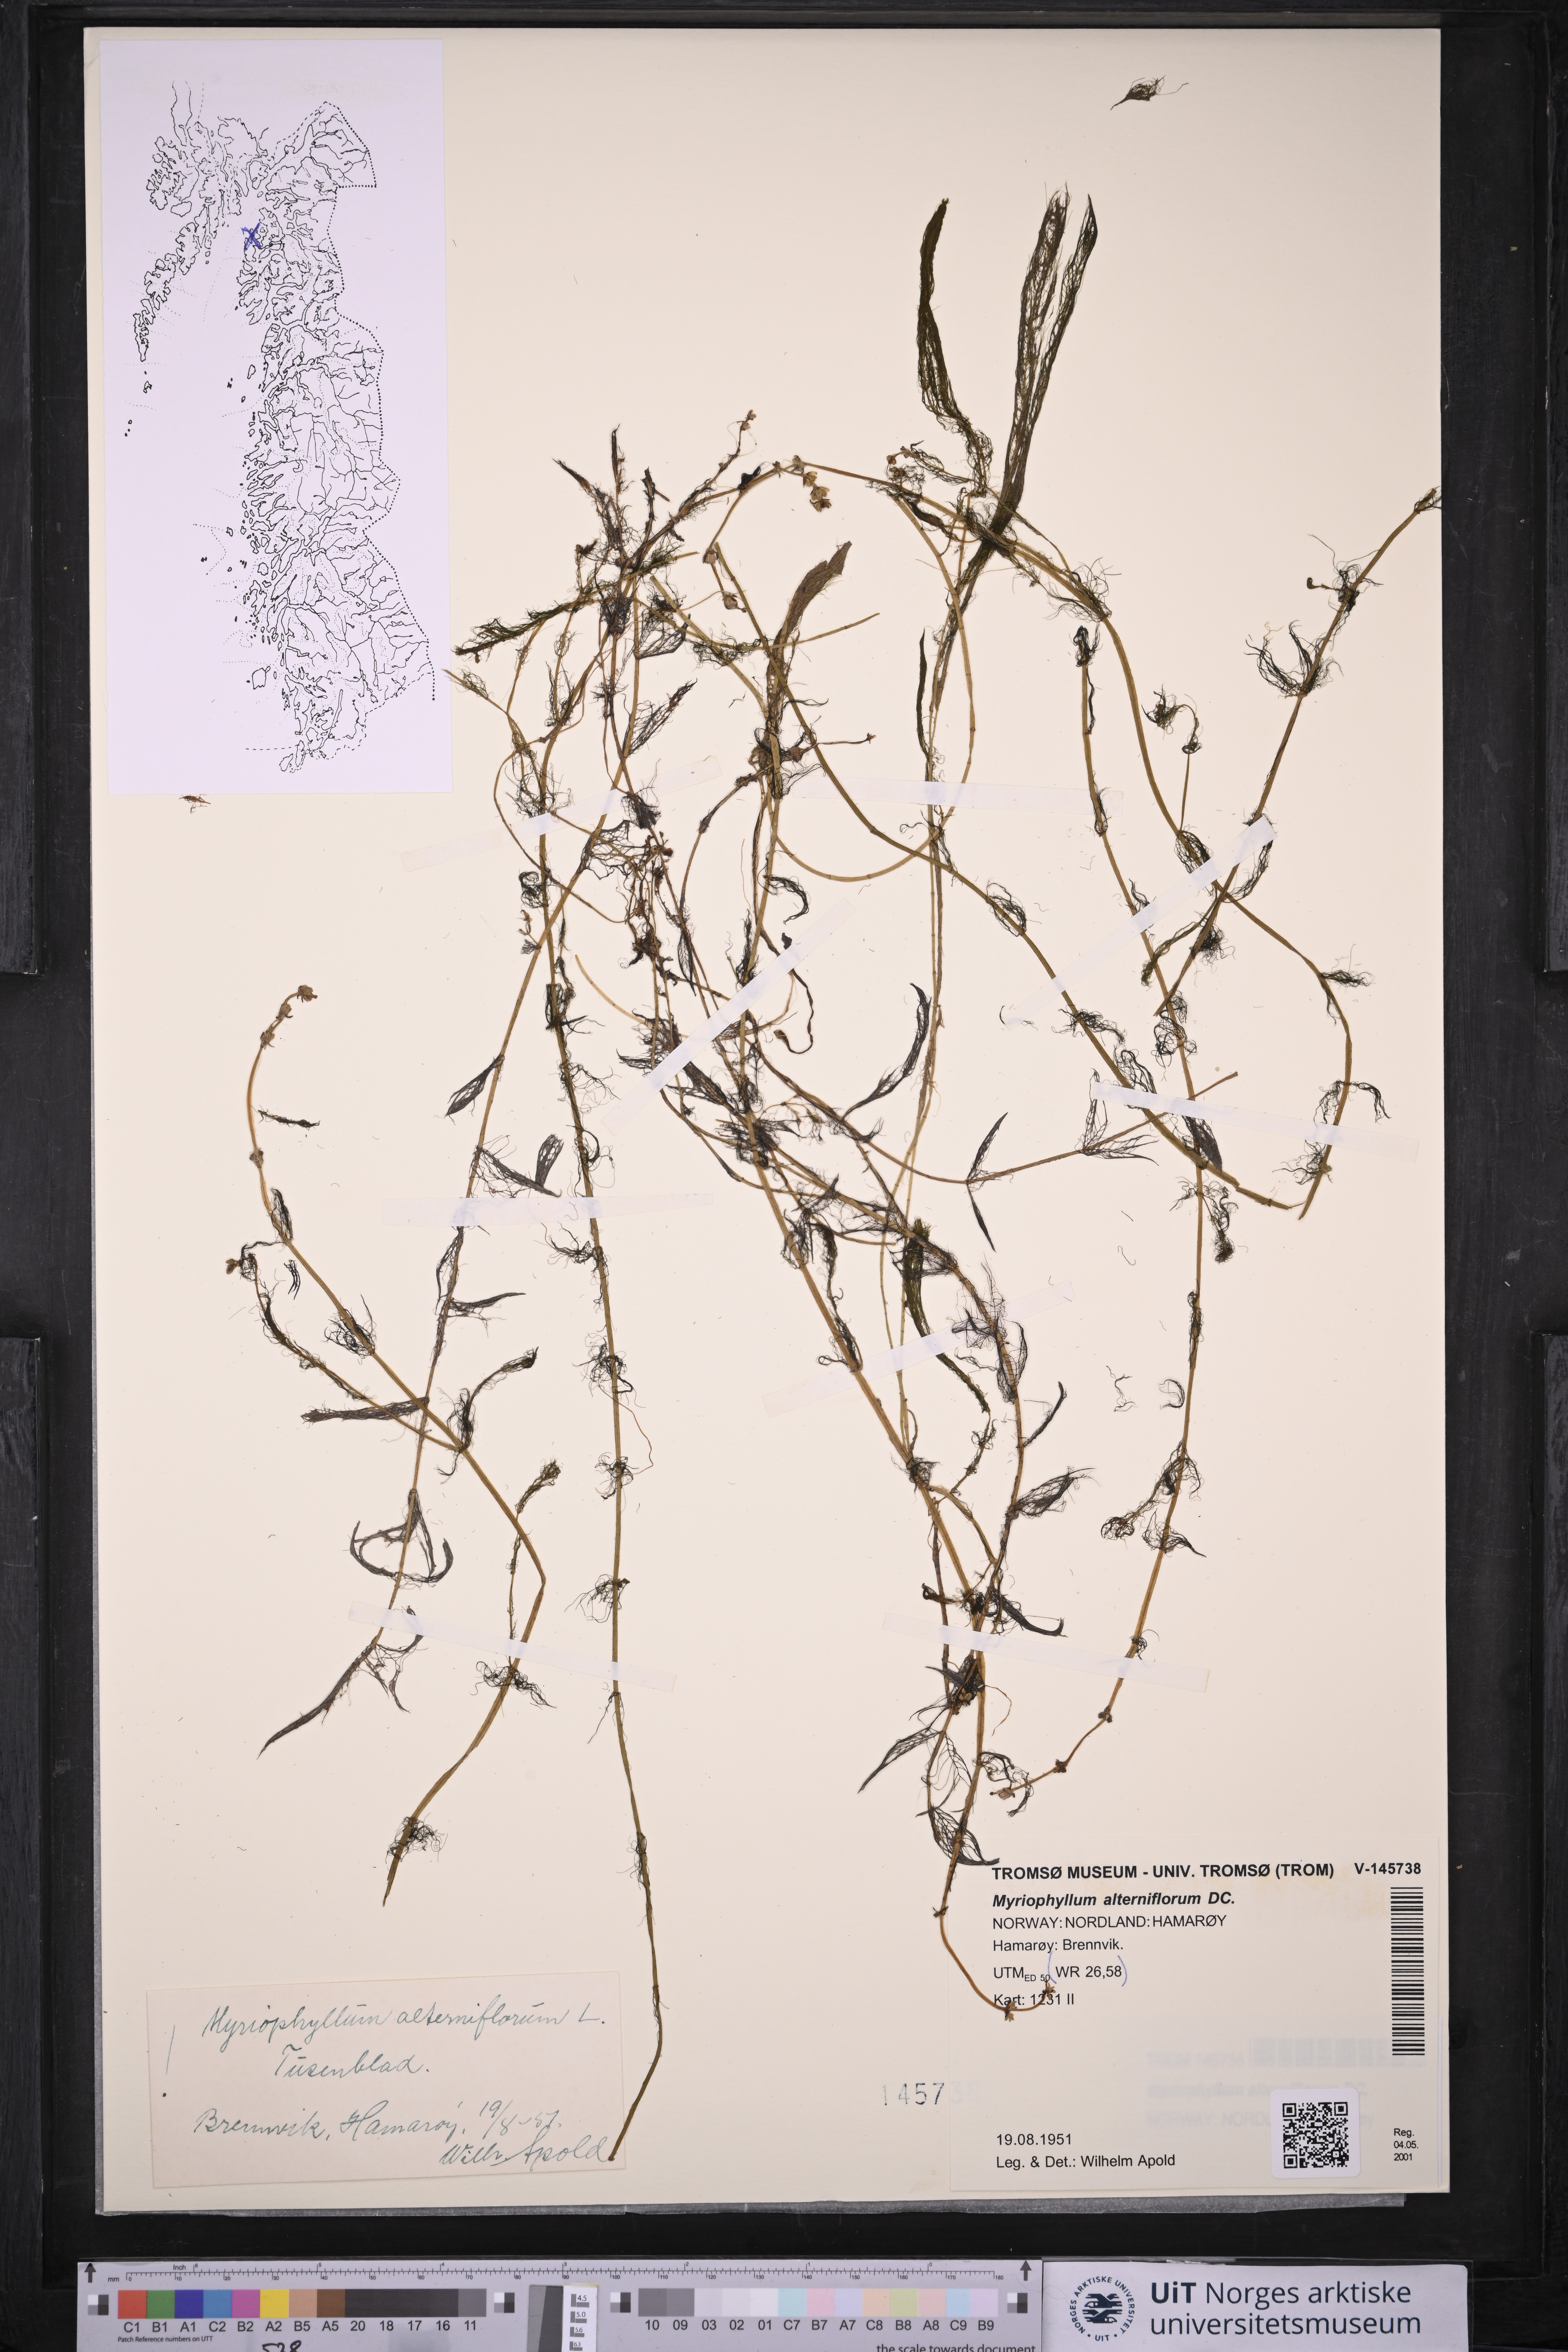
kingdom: Plantae
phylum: Tracheophyta
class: Magnoliopsida
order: Saxifragales
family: Haloragaceae
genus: Myriophyllum
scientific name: Myriophyllum alterniflorum
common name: Alternate water-milfoil
